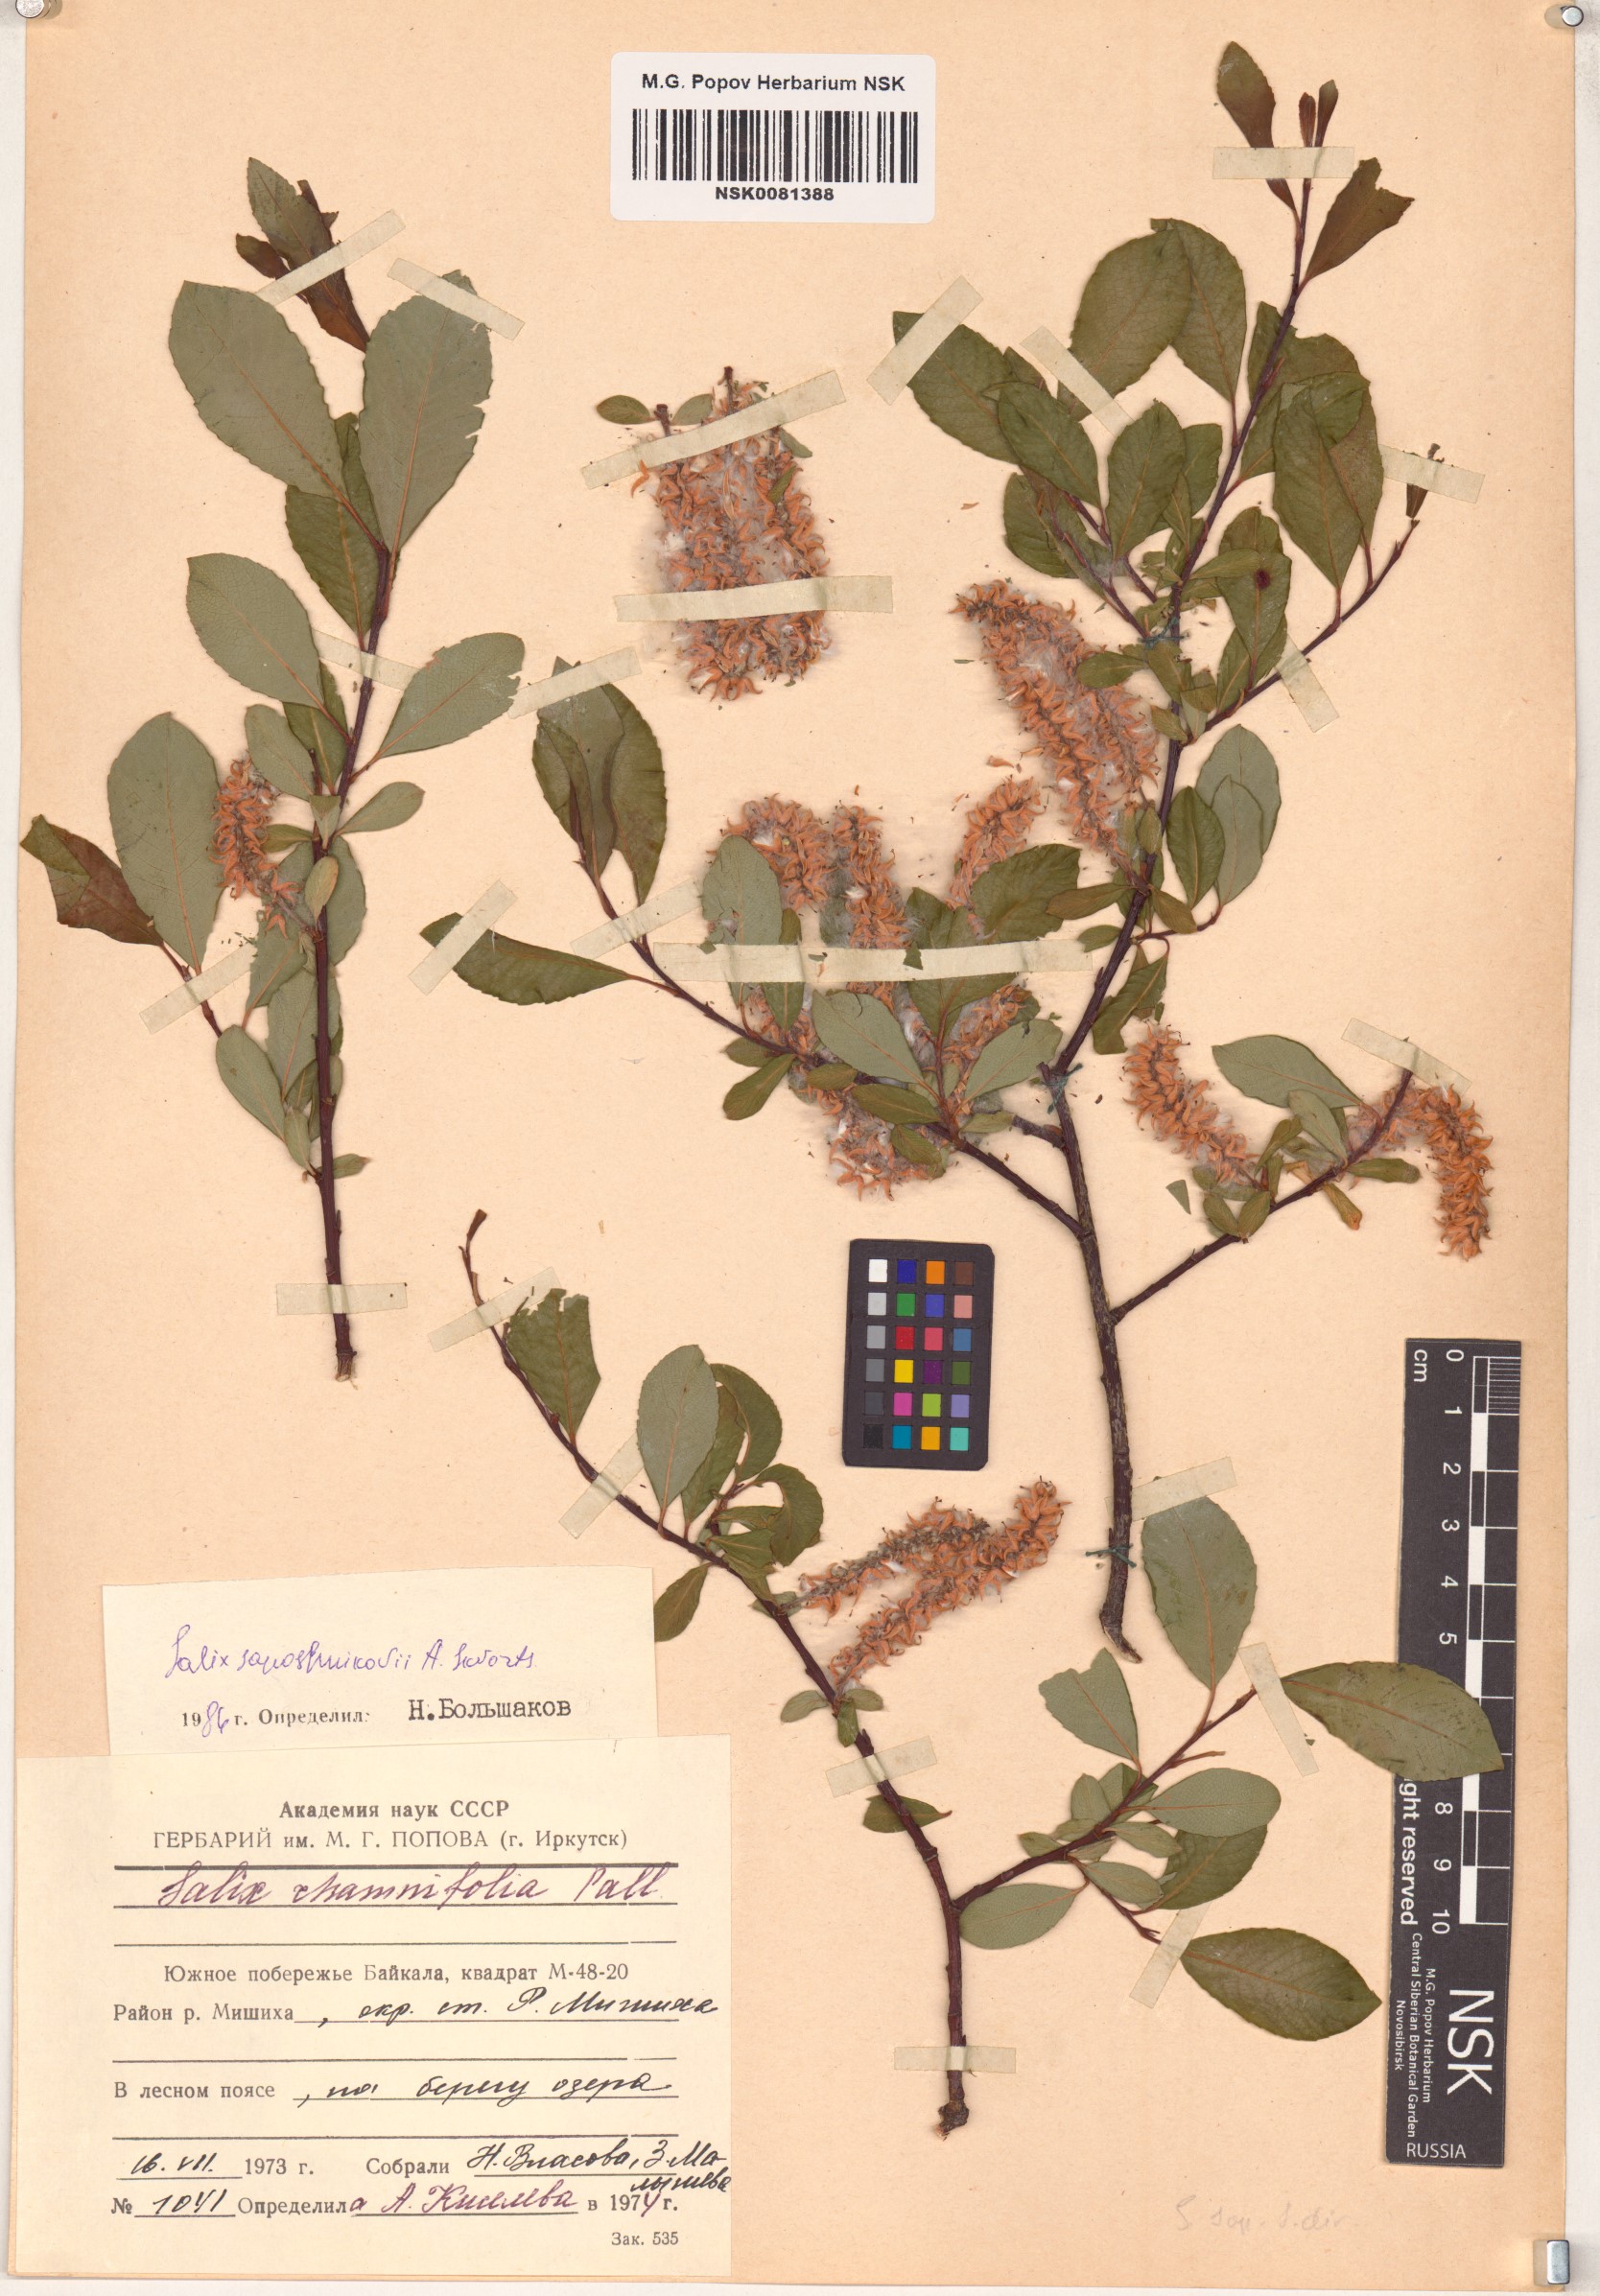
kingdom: Plantae
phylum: Tracheophyta
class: Magnoliopsida
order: Malpighiales
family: Salicaceae
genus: Salix
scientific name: Salix saposhnikovii
